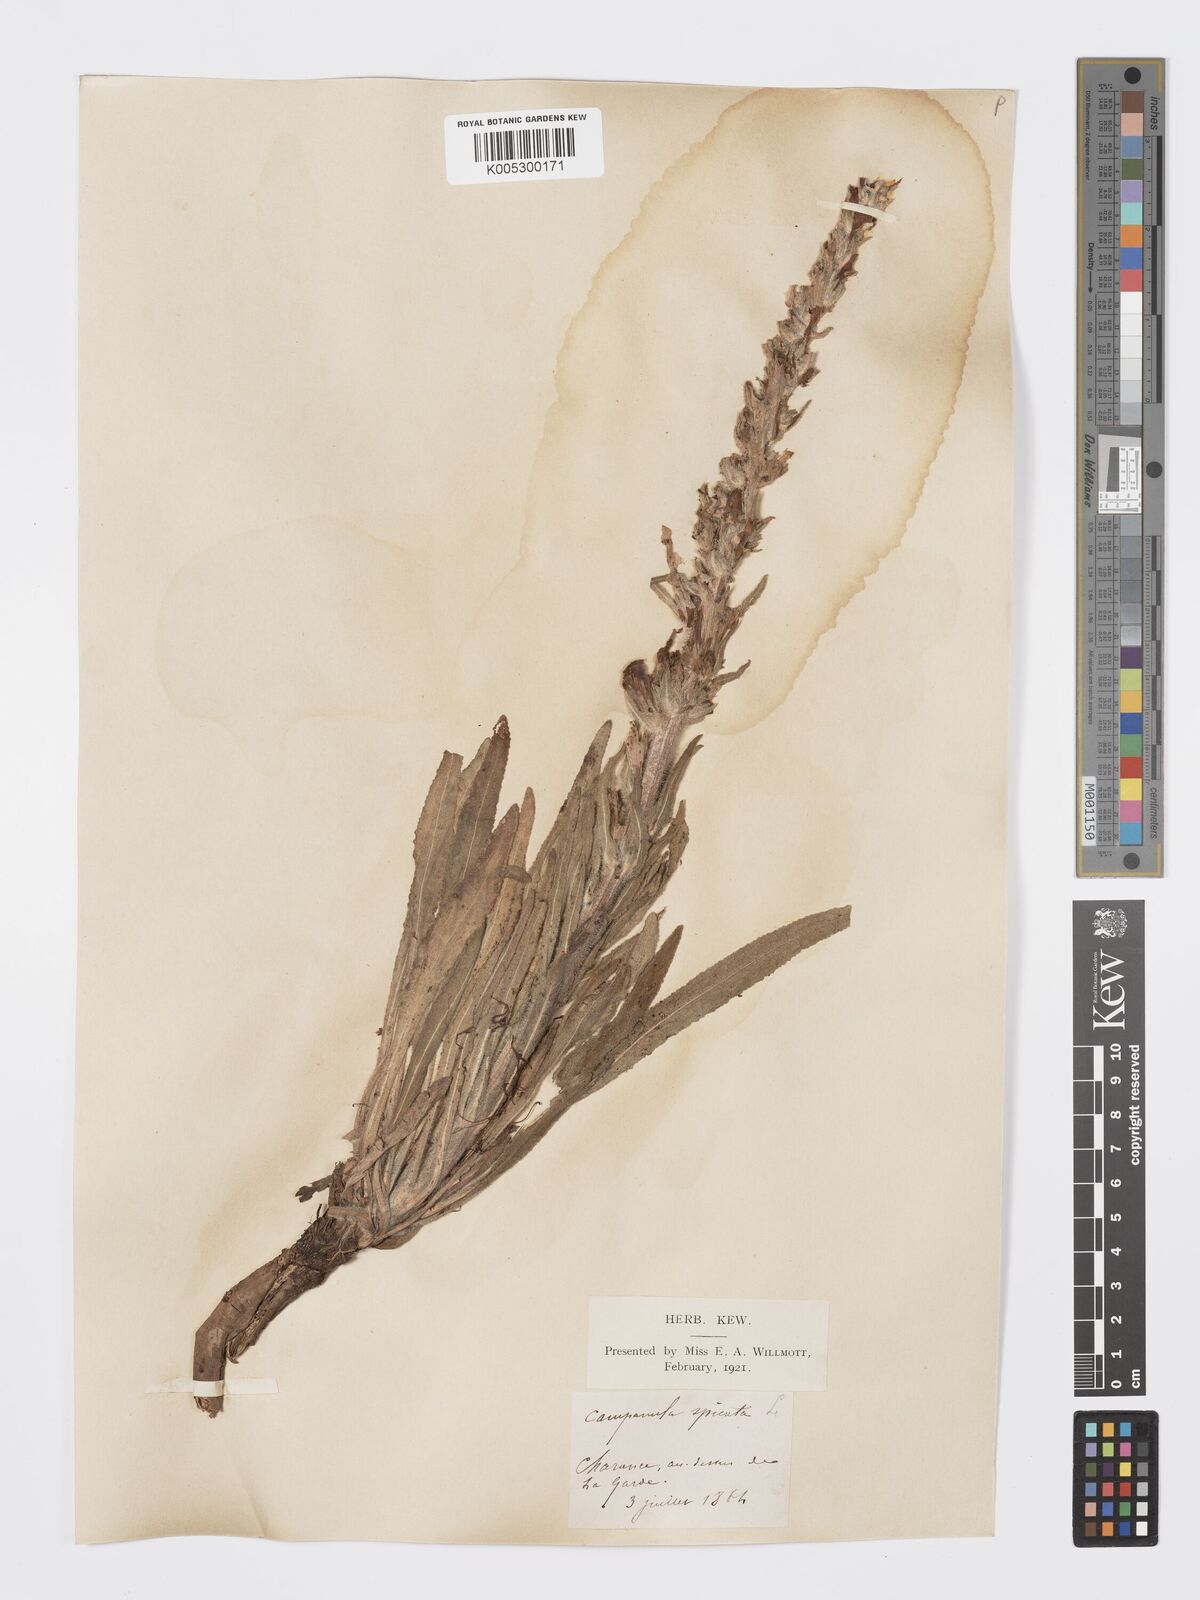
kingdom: Plantae
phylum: Tracheophyta
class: Magnoliopsida
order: Asterales
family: Campanulaceae
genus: Campanula
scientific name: Campanula spicata
